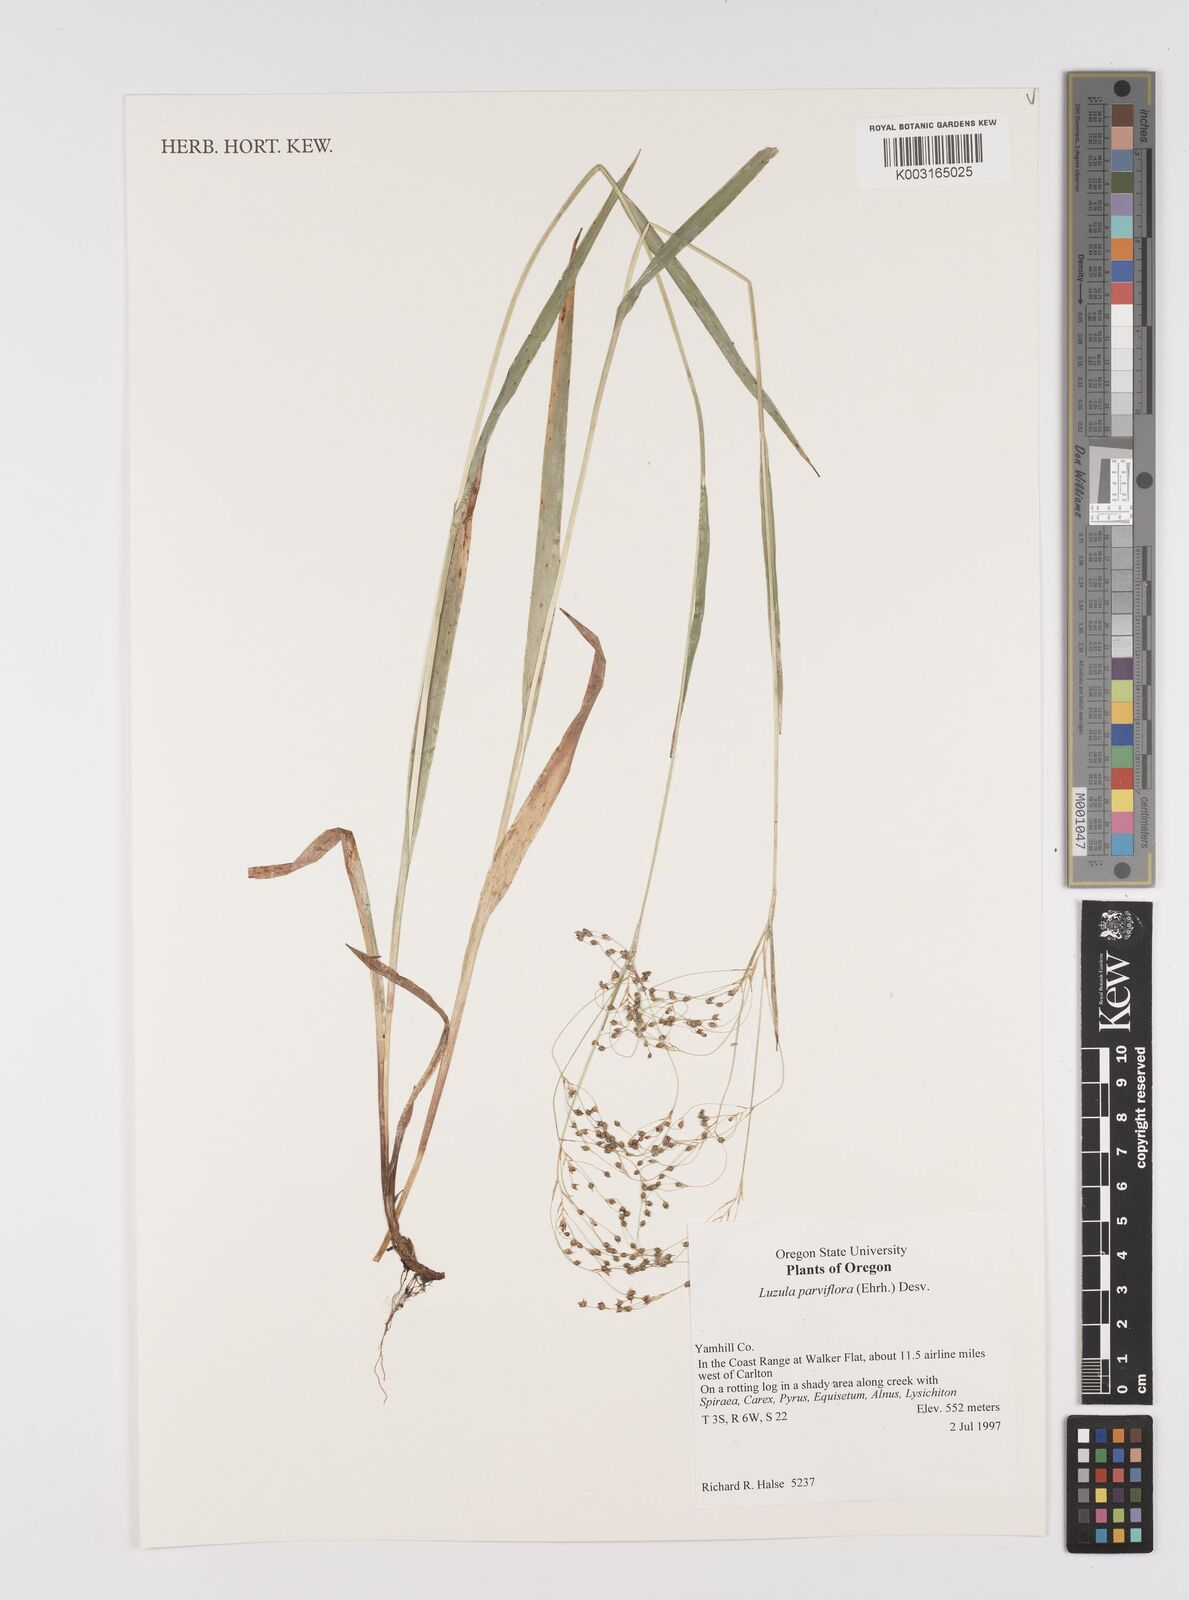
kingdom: Plantae
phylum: Tracheophyta
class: Liliopsida
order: Poales
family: Juncaceae
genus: Luzula
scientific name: Luzula parviflora
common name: Millet woodrush
